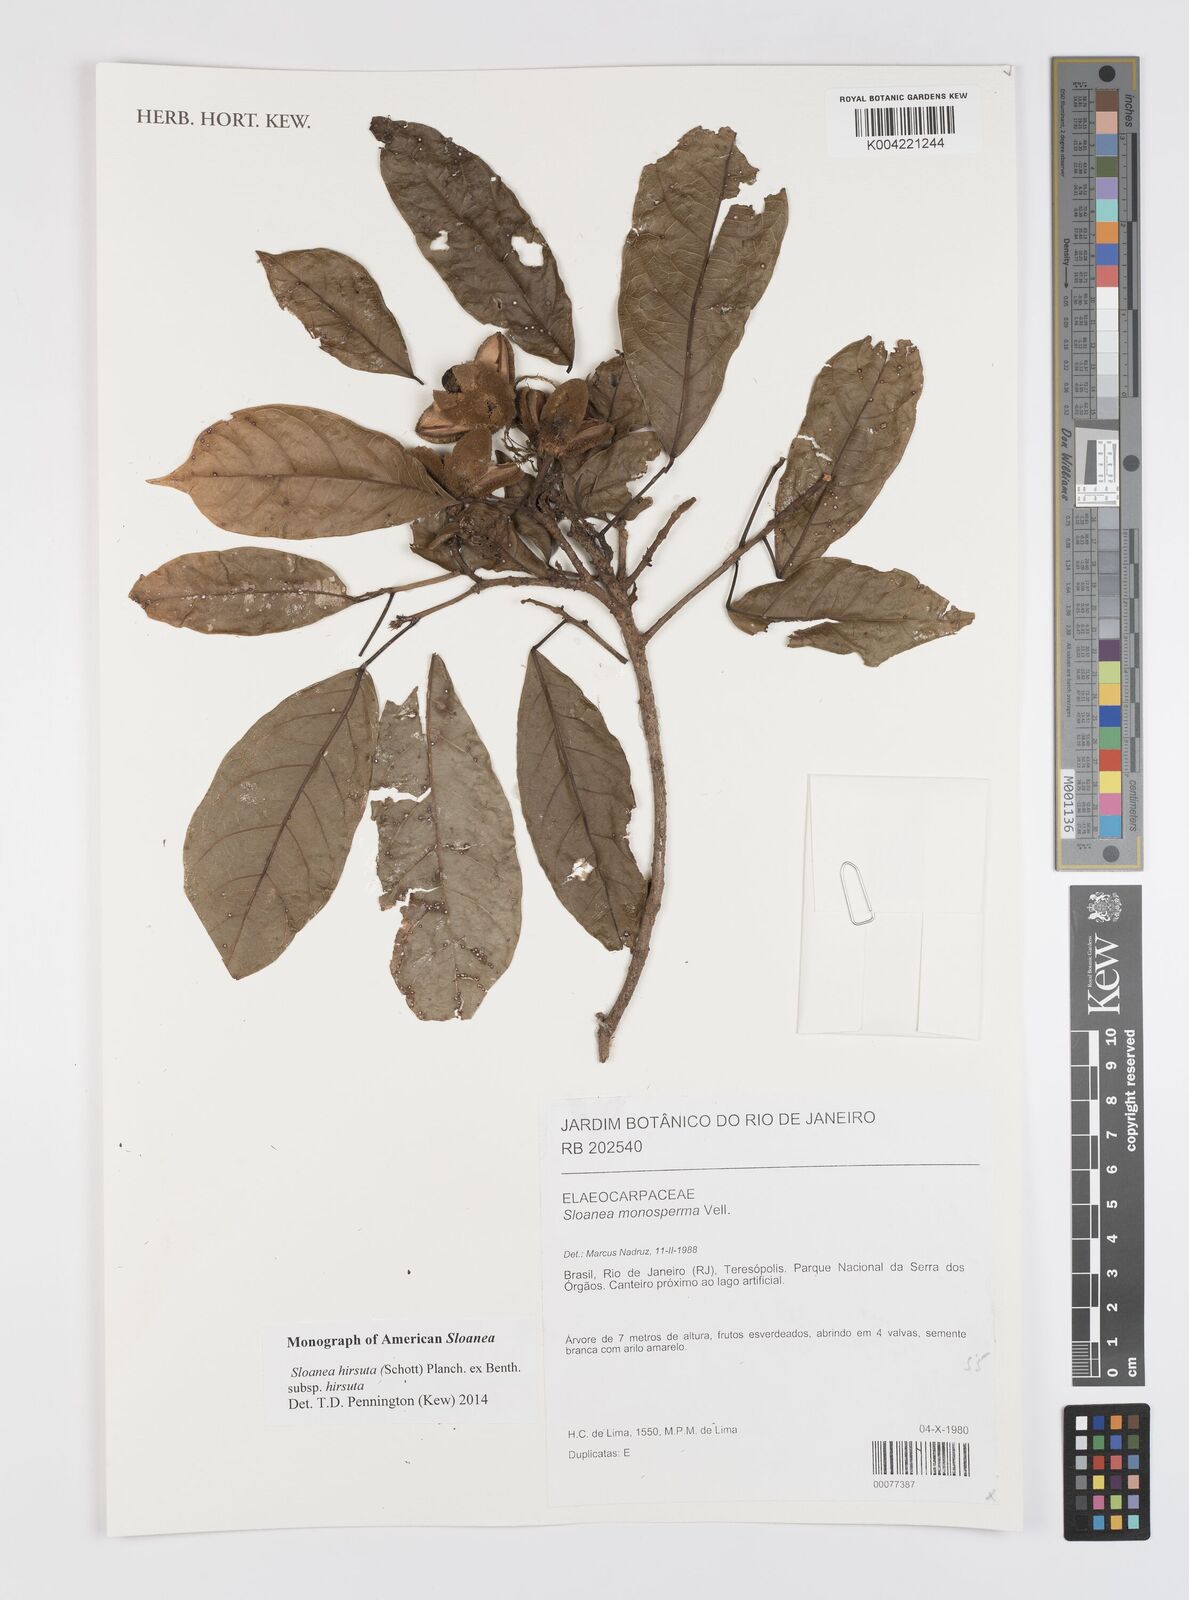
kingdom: Plantae
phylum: Tracheophyta
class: Magnoliopsida
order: Oxalidales
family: Elaeocarpaceae
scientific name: Elaeocarpaceae
